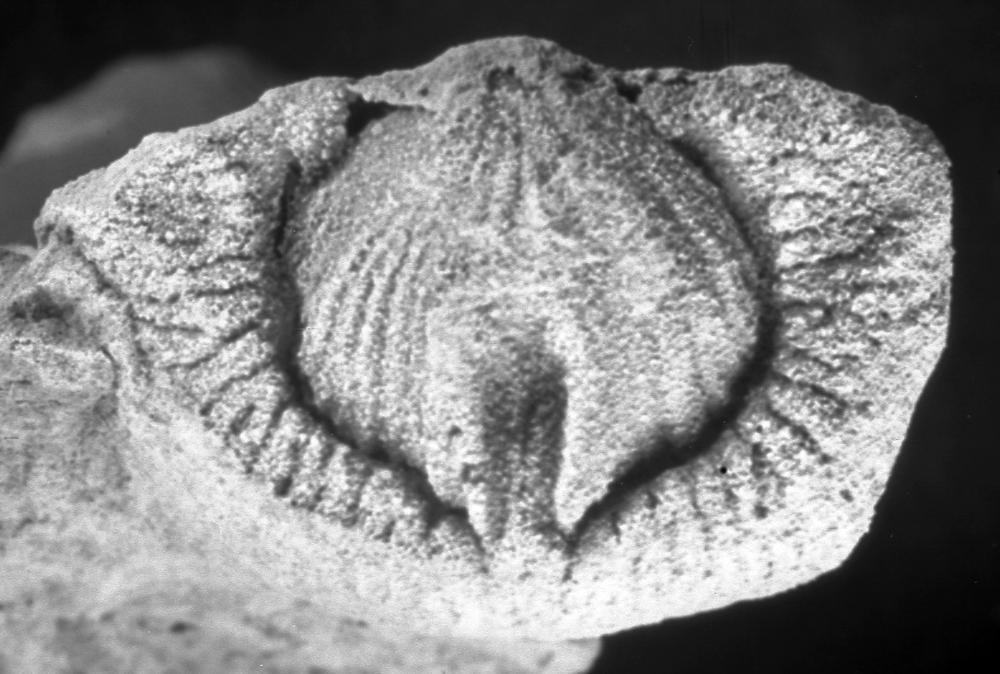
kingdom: Animalia
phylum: Brachiopoda
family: Strophomenidae
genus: Leptaena
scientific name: Leptaena rugosoides
